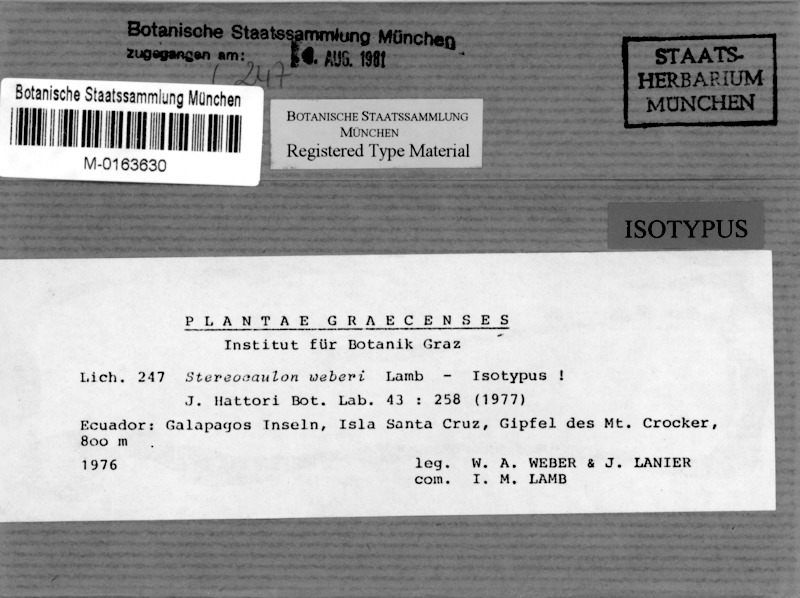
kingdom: Fungi
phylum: Ascomycota
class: Lecanoromycetes
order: Lecanorales
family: Stereocaulaceae
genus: Stereocaulon
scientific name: Stereocaulon weberi
